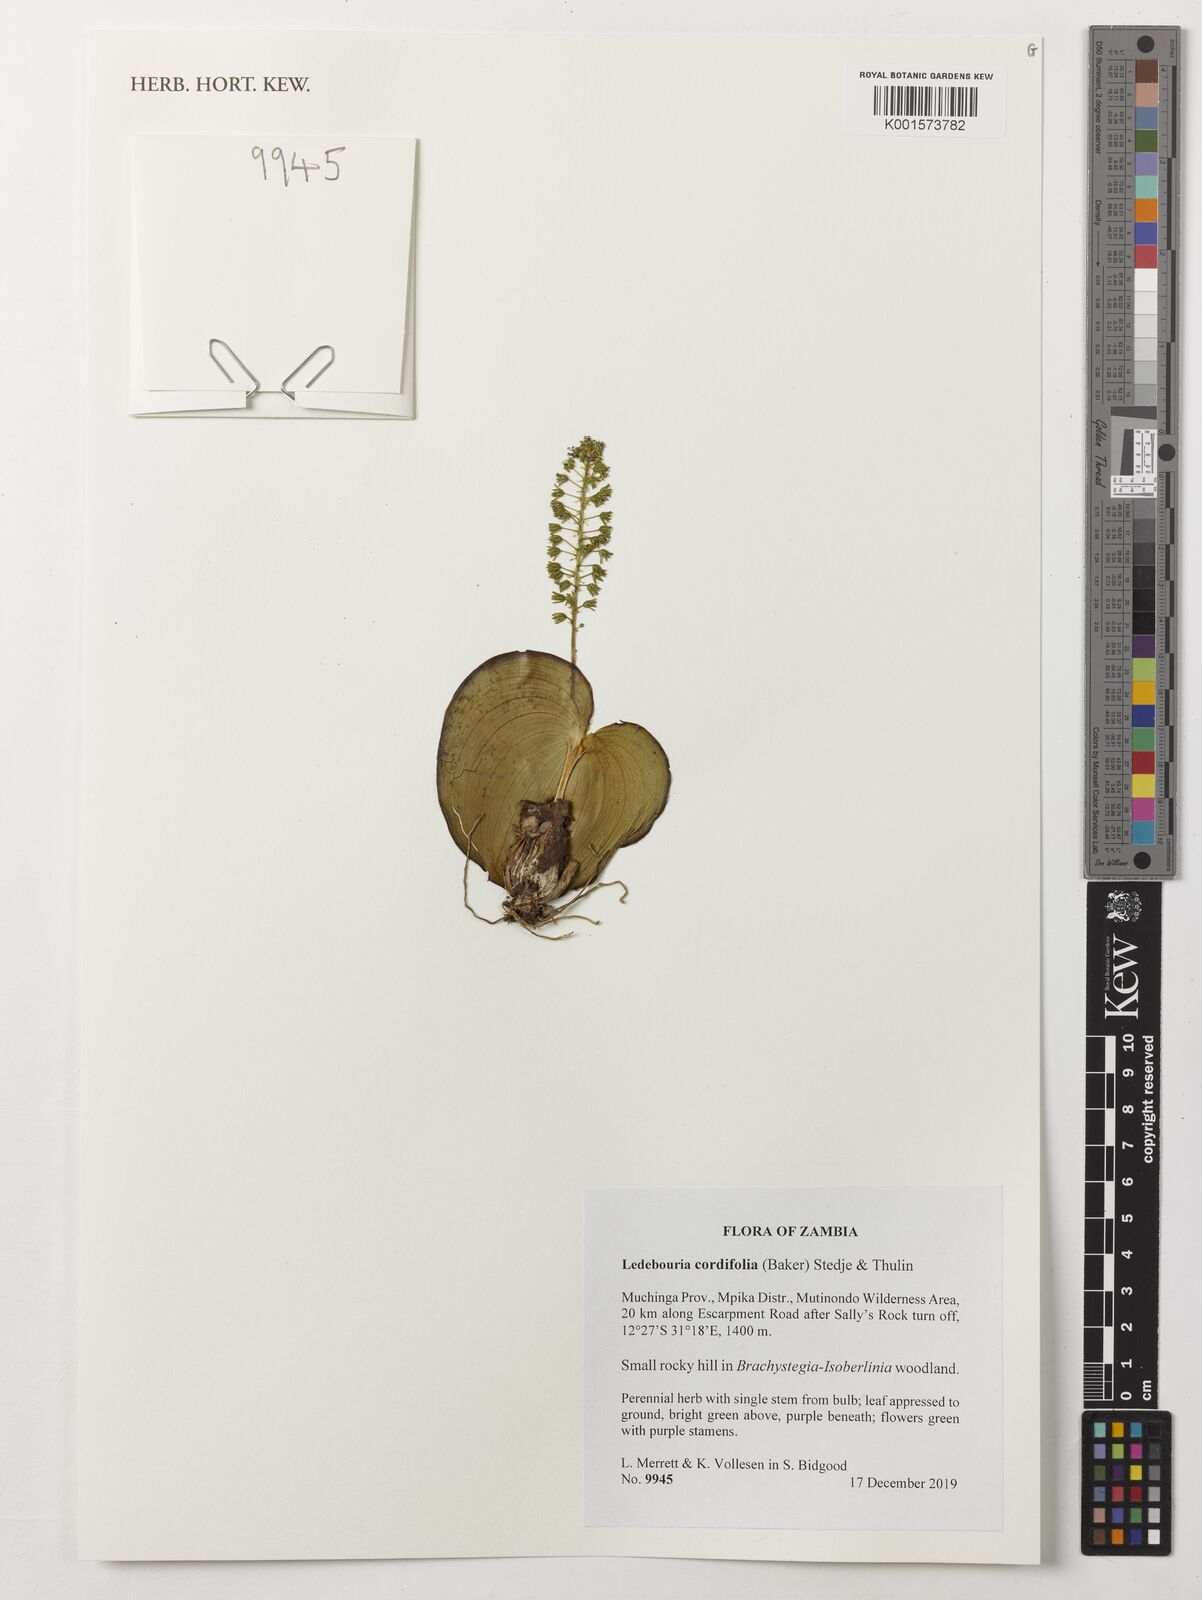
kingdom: Plantae
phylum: Tracheophyta
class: Liliopsida
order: Asparagales
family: Asparagaceae
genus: Ledebouria
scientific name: Ledebouria cordifolia
